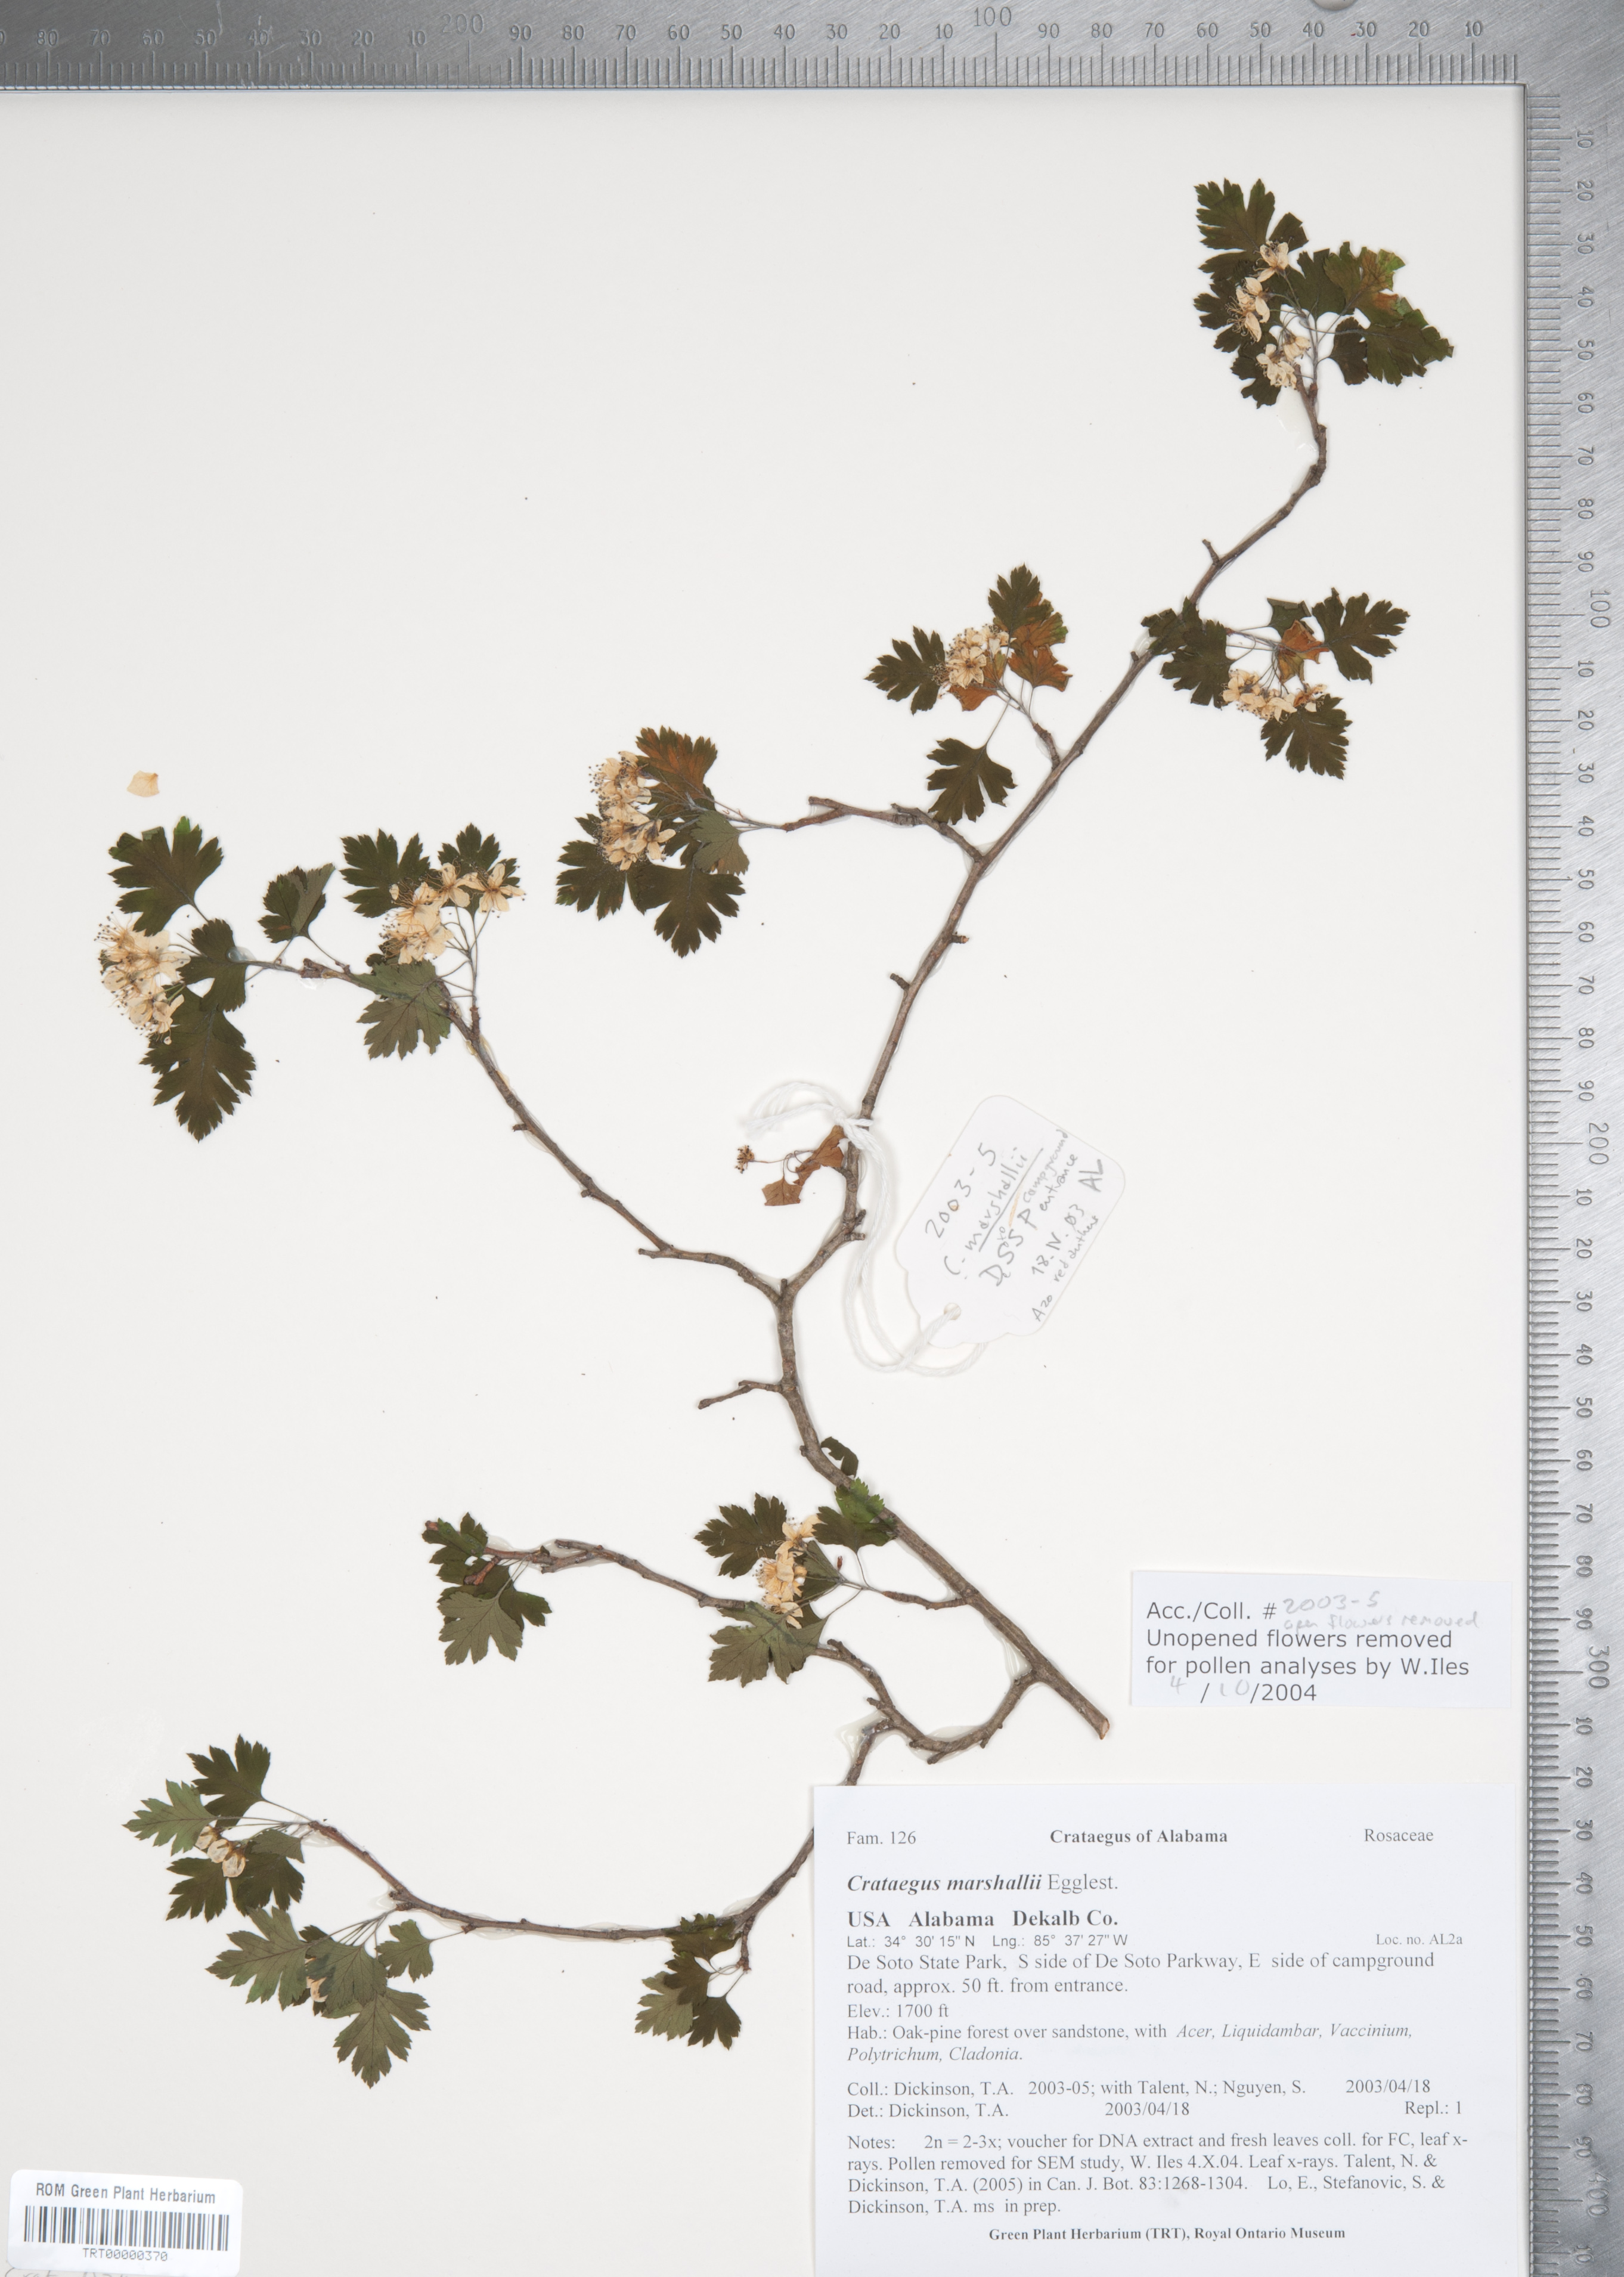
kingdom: Plantae
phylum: Tracheophyta
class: Magnoliopsida
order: Rosales
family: Rosaceae
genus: Crataegus
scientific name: Crataegus marshallii
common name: Parsley-hawthorn
